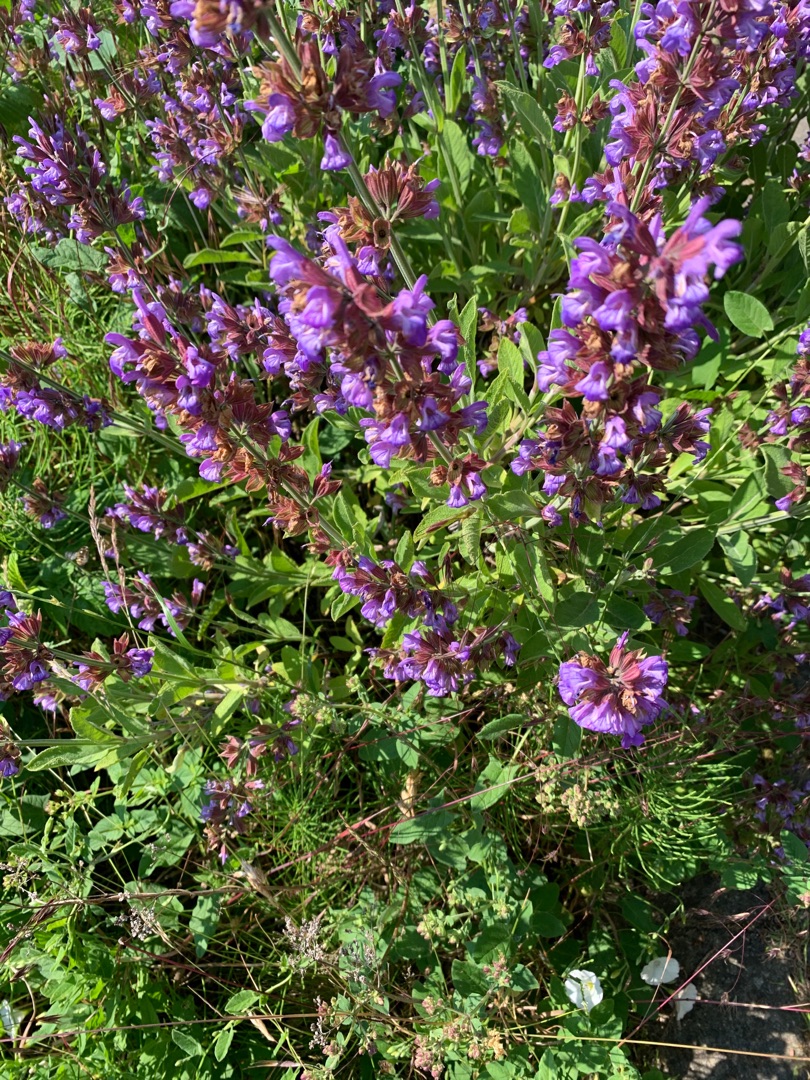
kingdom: Plantae
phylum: Tracheophyta
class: Magnoliopsida
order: Lamiales
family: Lamiaceae
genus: Salvia
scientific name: Salvia officinalis
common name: Læge-salvie
